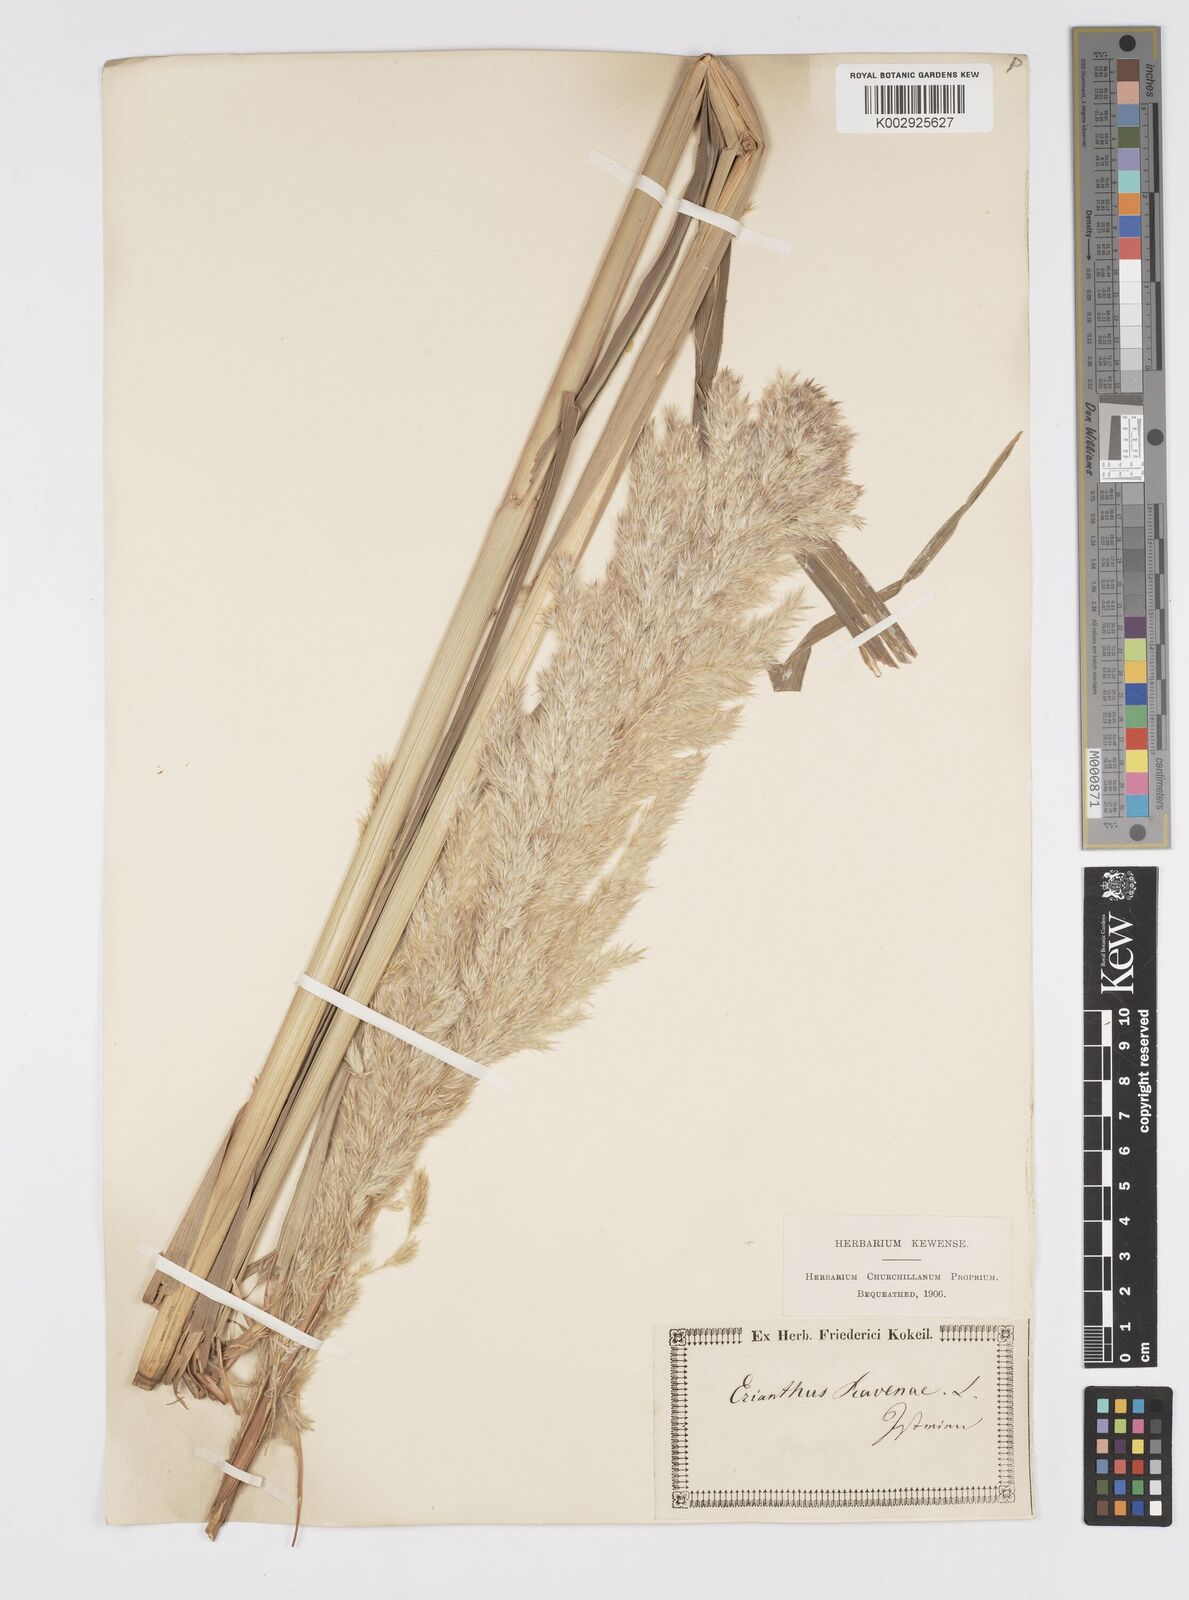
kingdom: Plantae
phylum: Tracheophyta
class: Liliopsida
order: Poales
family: Poaceae
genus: Tripidium
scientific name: Tripidium ravennae
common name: Ravenna grass
